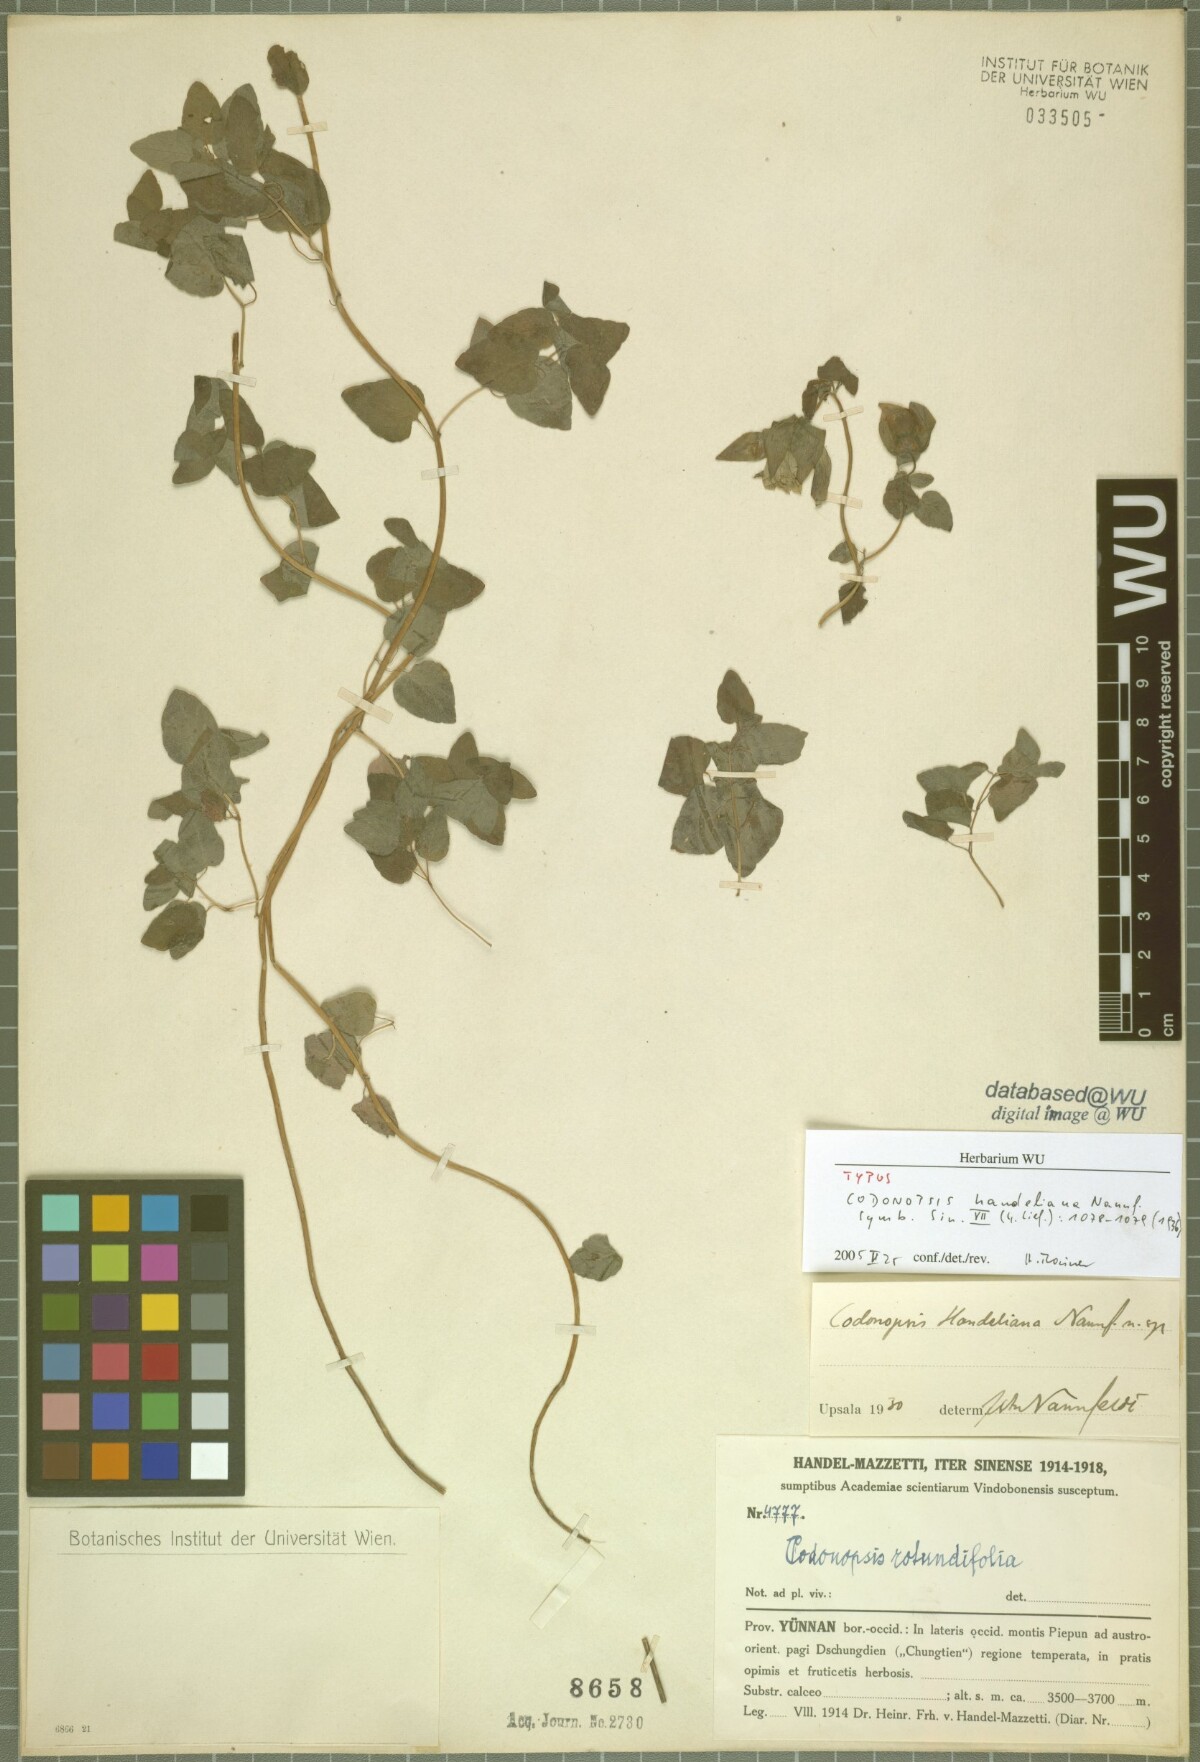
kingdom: Plantae
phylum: Tracheophyta
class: Magnoliopsida
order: Asterales
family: Campanulaceae
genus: Codonopsis
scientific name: Codonopsis pilosula
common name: Bellflower
